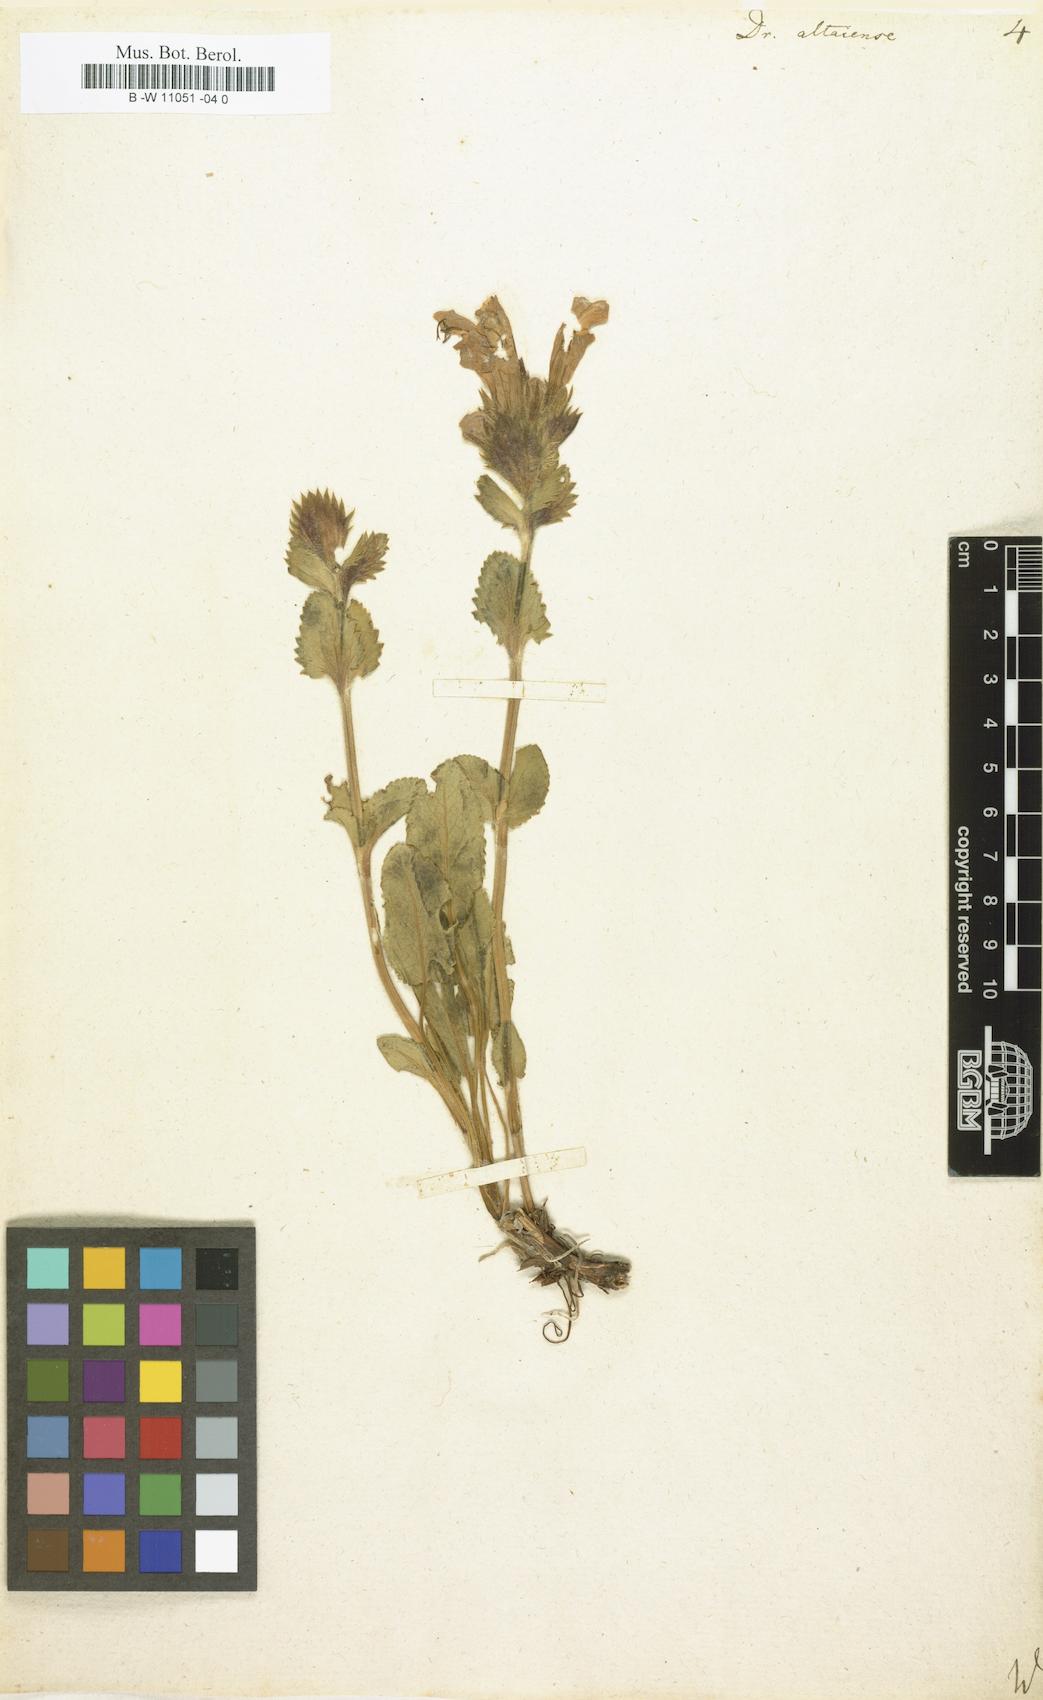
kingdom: Plantae
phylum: Tracheophyta
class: Magnoliopsida
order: Lamiales
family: Lamiaceae
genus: Dracocephalum
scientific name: Dracocephalum
